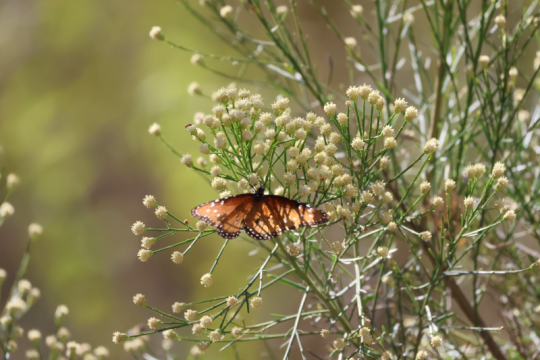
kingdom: Animalia
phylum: Arthropoda
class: Insecta
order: Lepidoptera
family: Nymphalidae
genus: Danaus
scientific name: Danaus gilippus
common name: Queen
